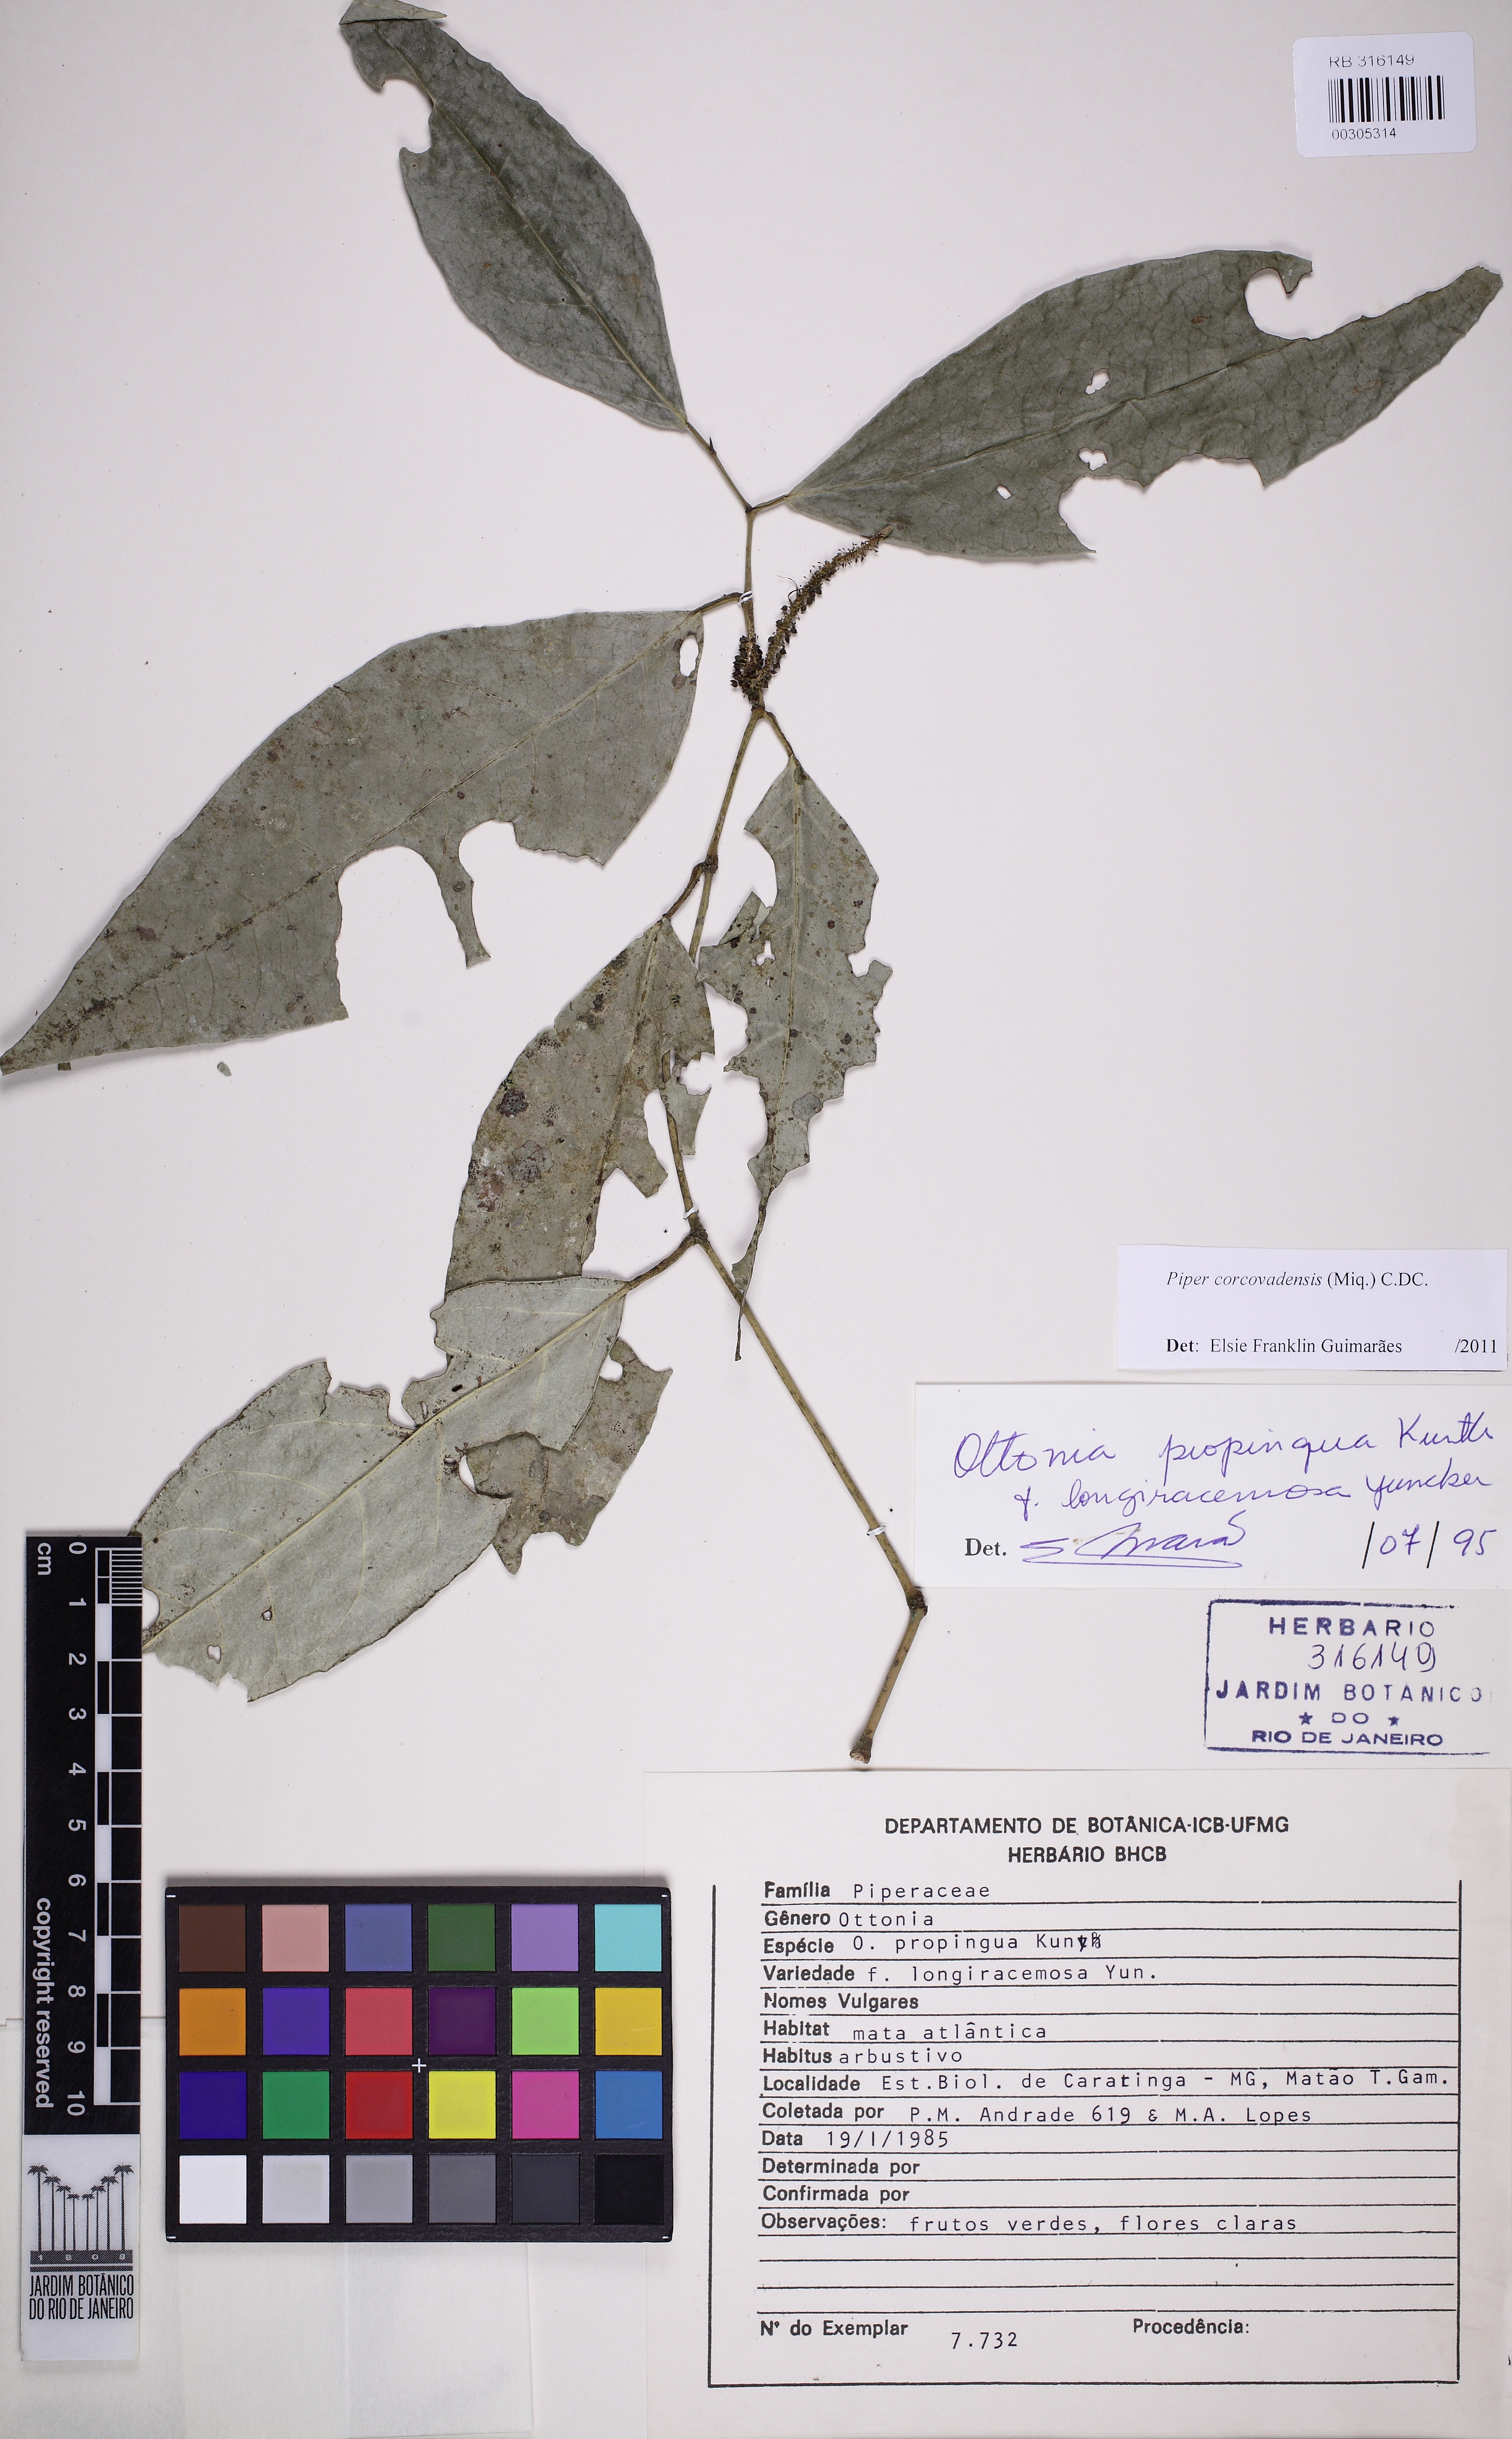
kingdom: Plantae
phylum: Tracheophyta
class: Magnoliopsida
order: Piperales
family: Piperaceae
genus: Piper
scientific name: Piper corcovadense
